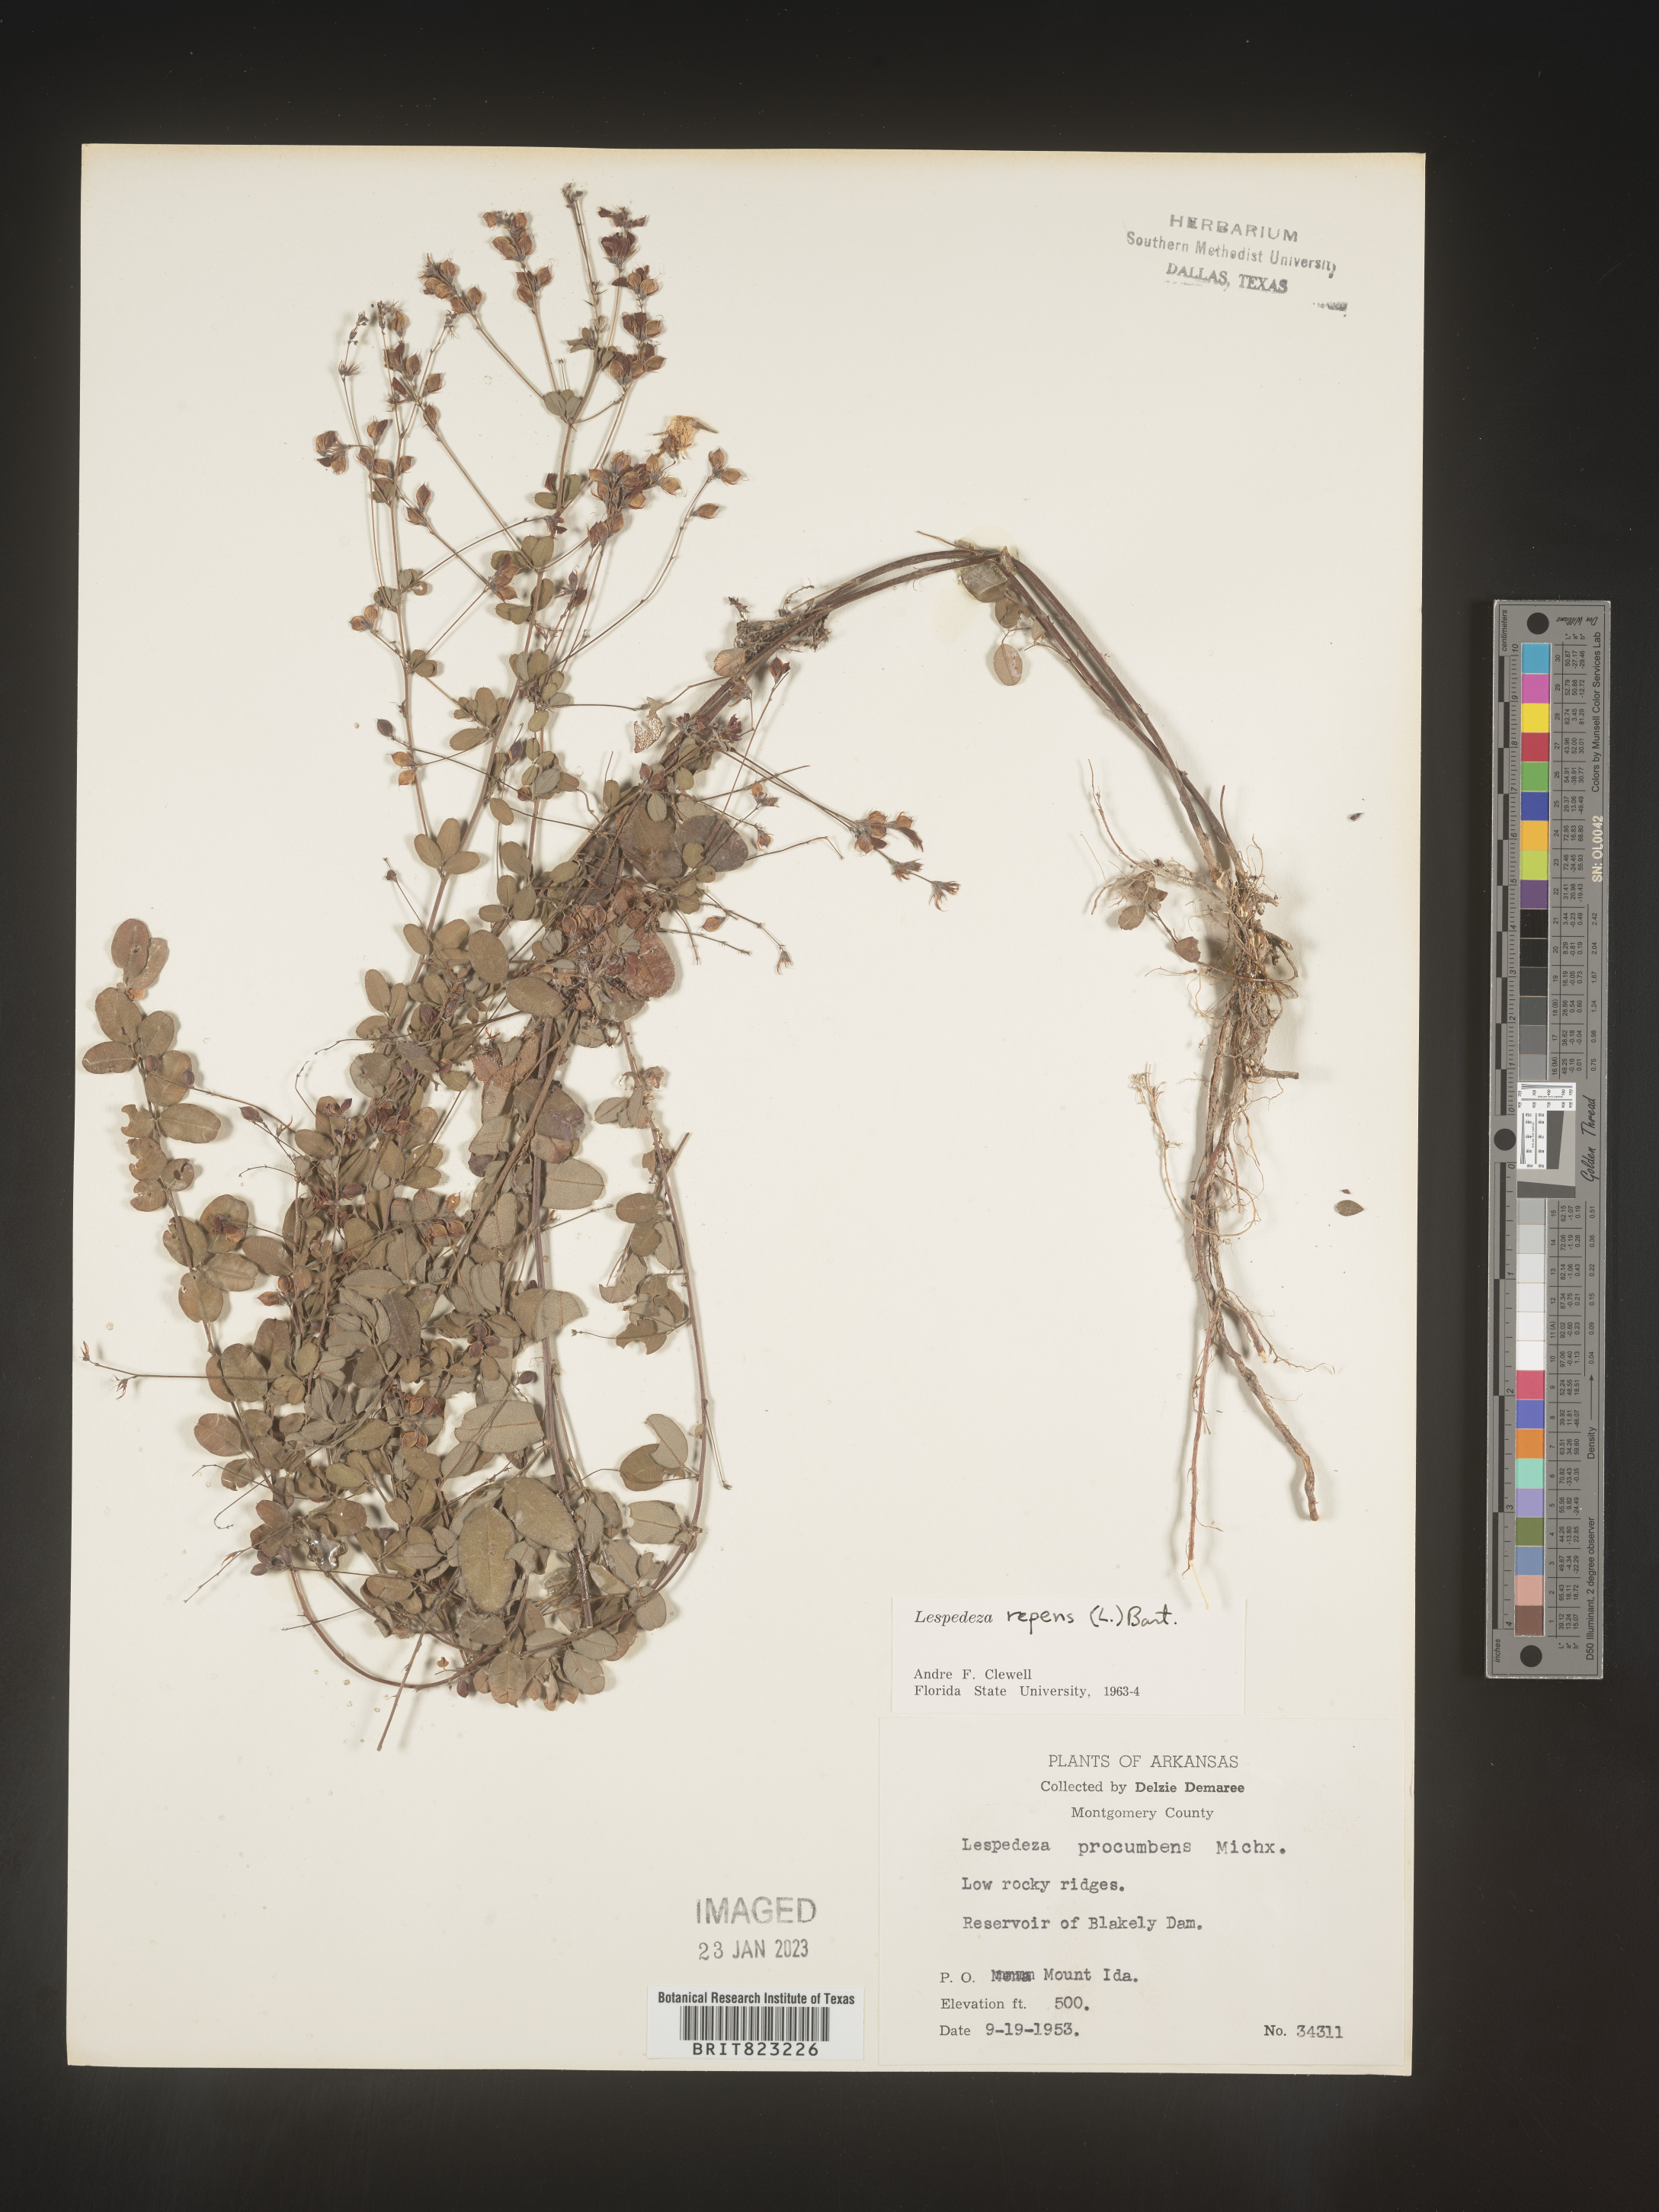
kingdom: Plantae
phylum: Tracheophyta
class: Magnoliopsida
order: Fabales
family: Fabaceae
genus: Lespedeza
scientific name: Lespedeza repens
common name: Creeping bush-clover
